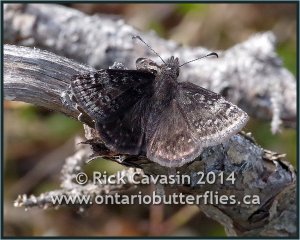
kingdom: Animalia
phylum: Arthropoda
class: Insecta
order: Lepidoptera
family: Hesperiidae
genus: Erynnis
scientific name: Erynnis icelus
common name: Dreamy Duskywing
